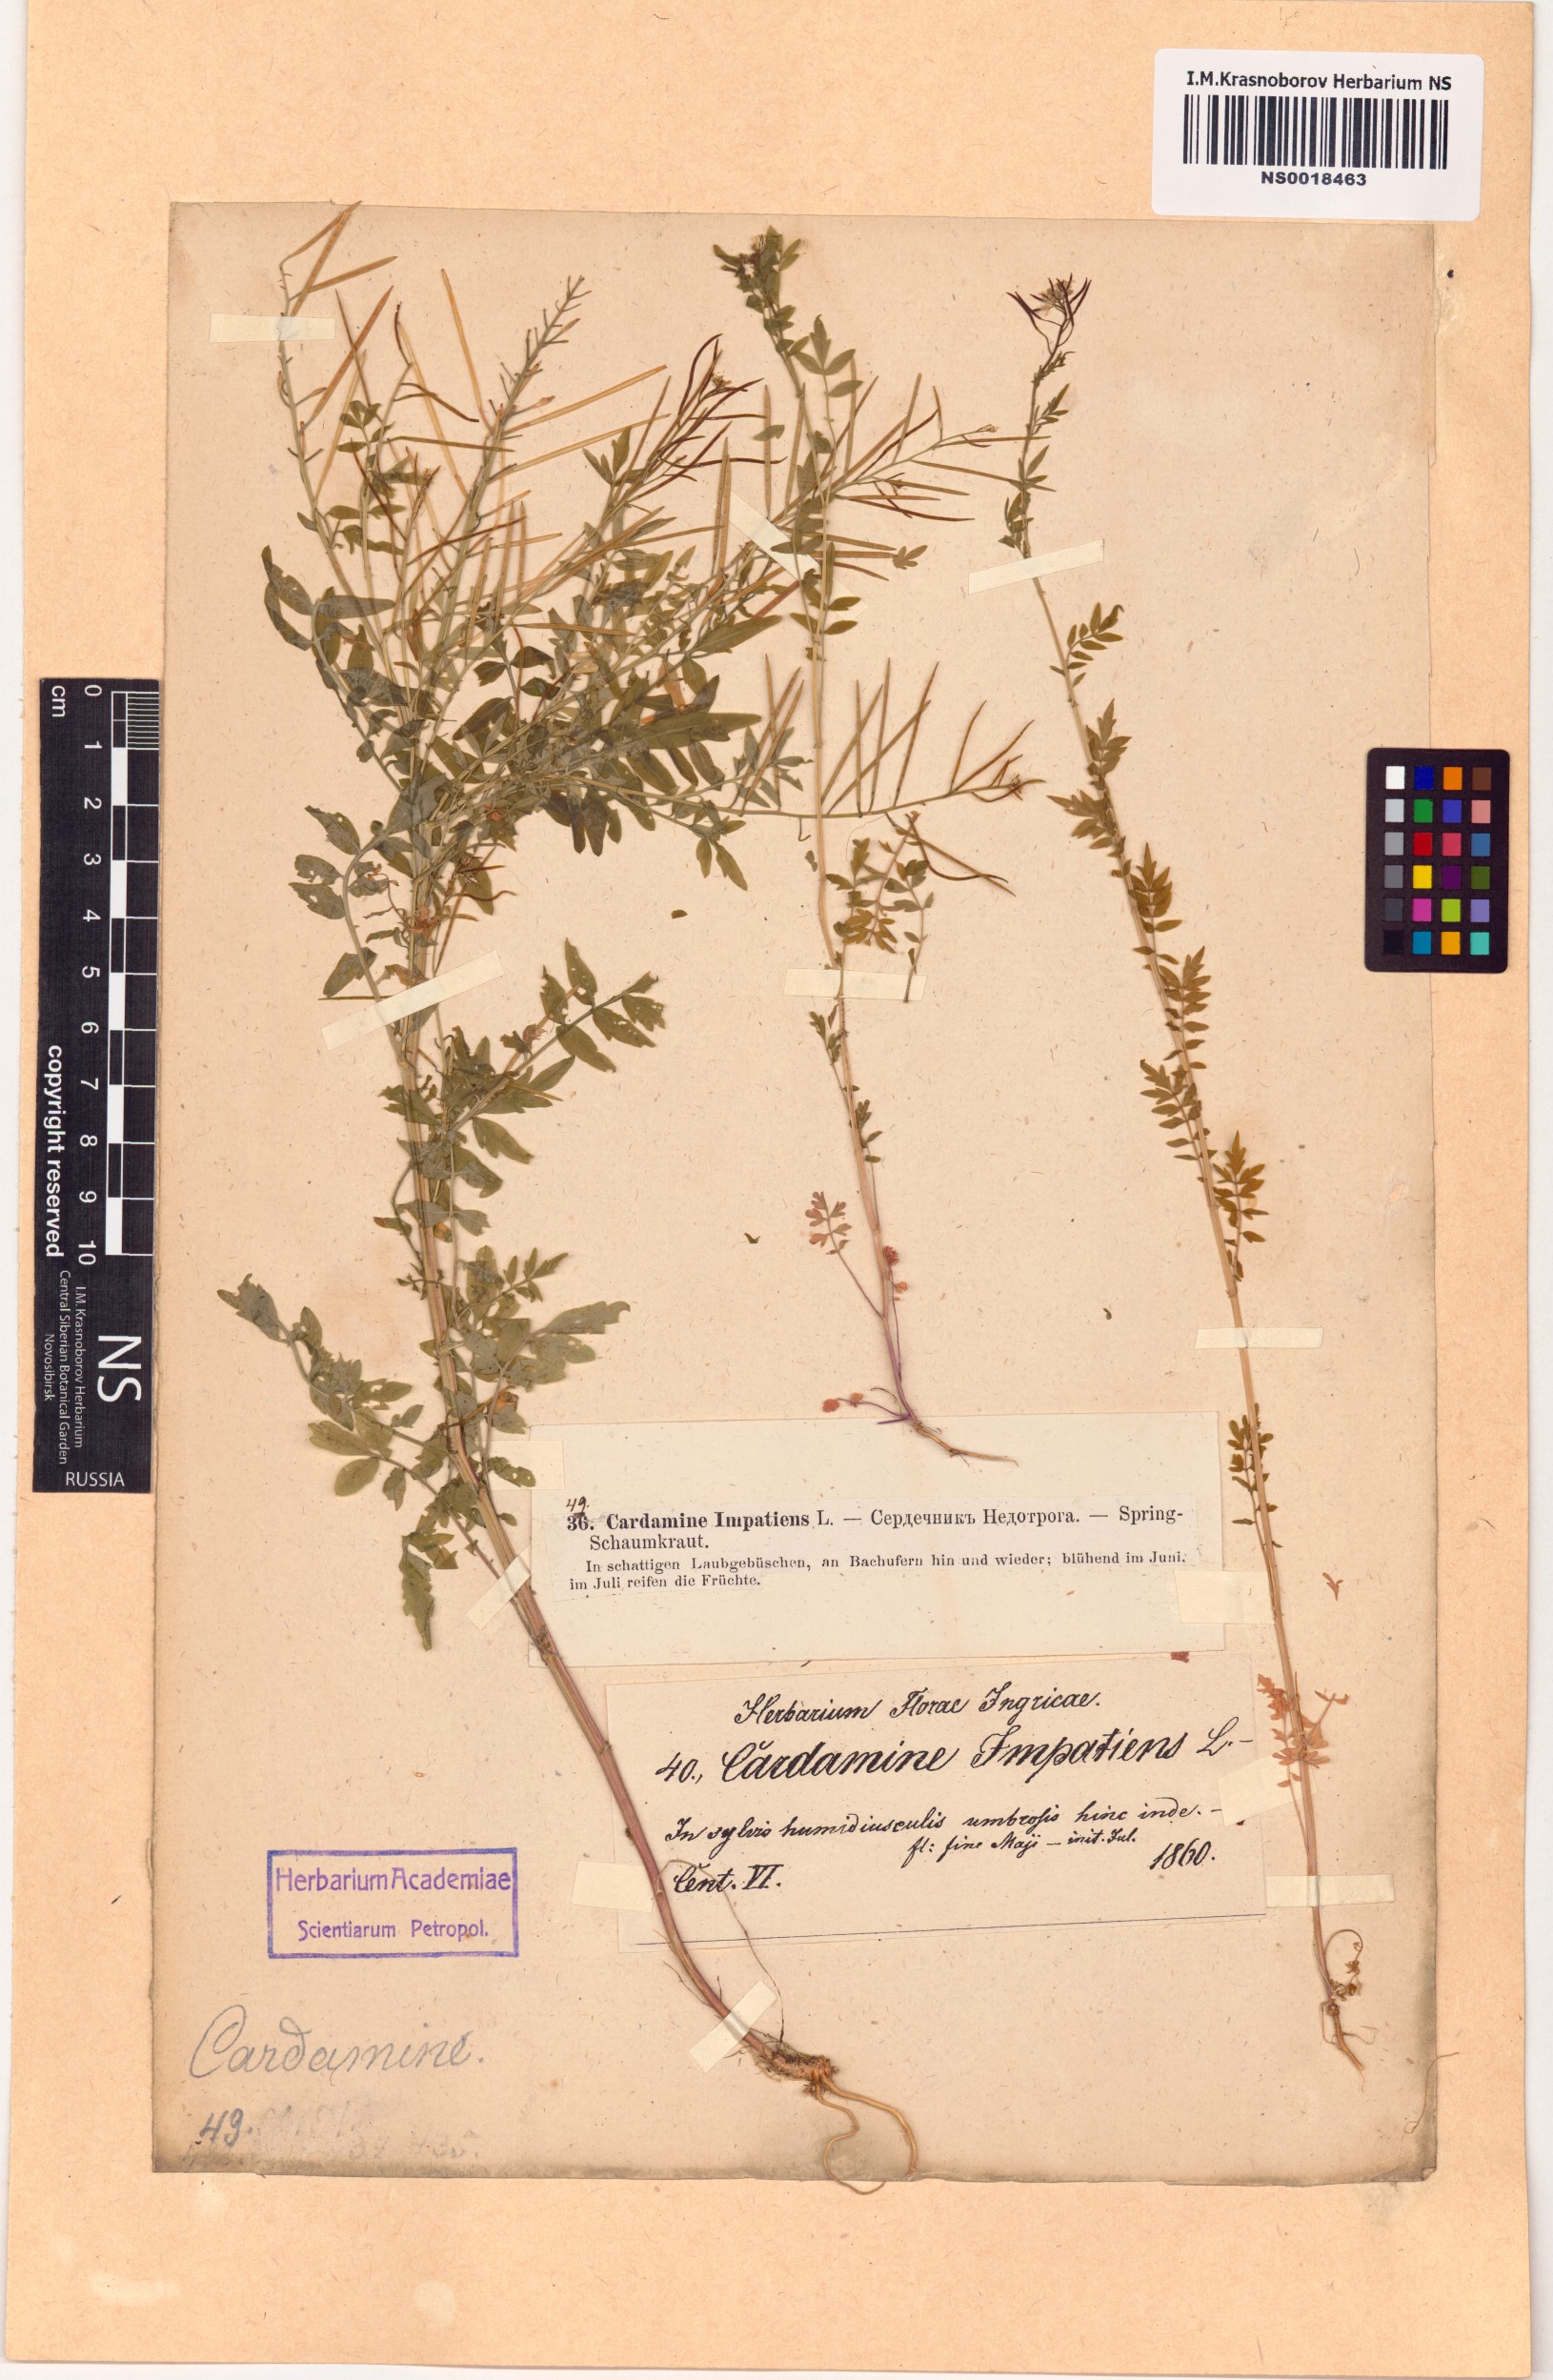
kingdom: Plantae
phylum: Tracheophyta
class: Magnoliopsida
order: Brassicales
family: Brassicaceae
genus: Cardamine
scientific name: Cardamine impatiens
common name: Narrow-leaved bitter-cress
